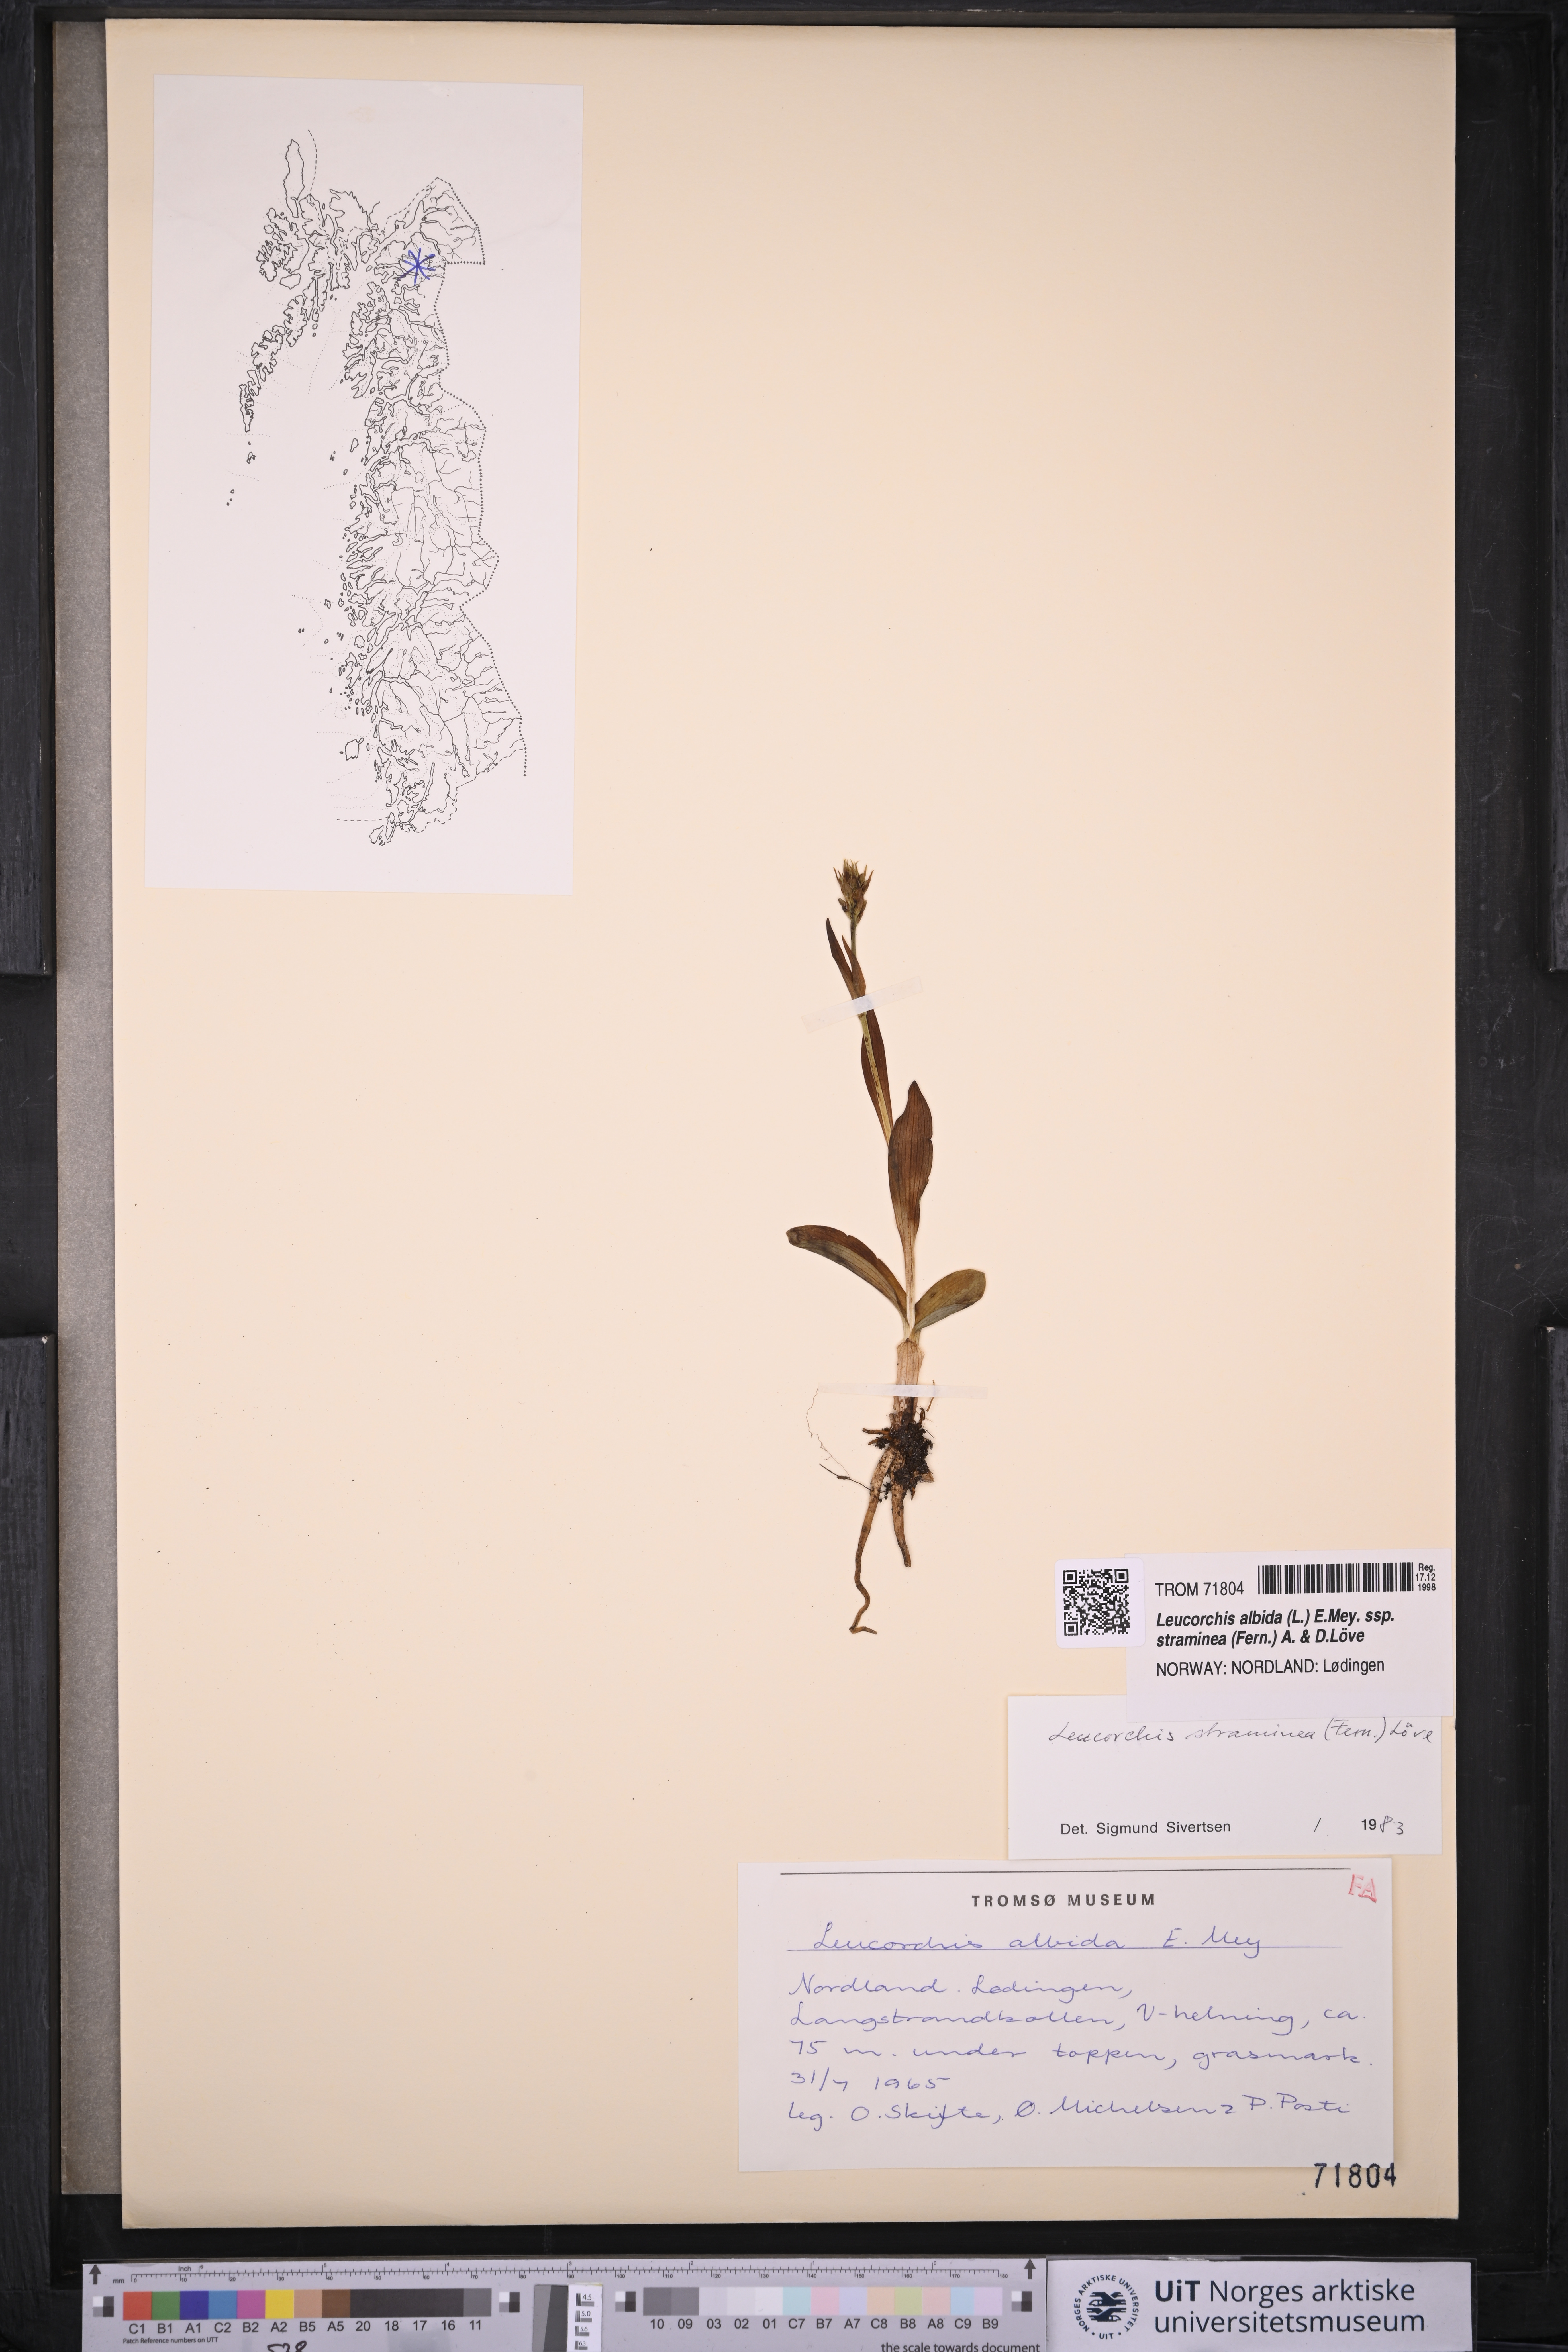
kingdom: Plantae
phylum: Tracheophyta
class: Liliopsida
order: Asparagales
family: Orchidaceae
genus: Pseudorchis
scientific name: Pseudorchis straminea
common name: Vanilla-scented bog orchid
